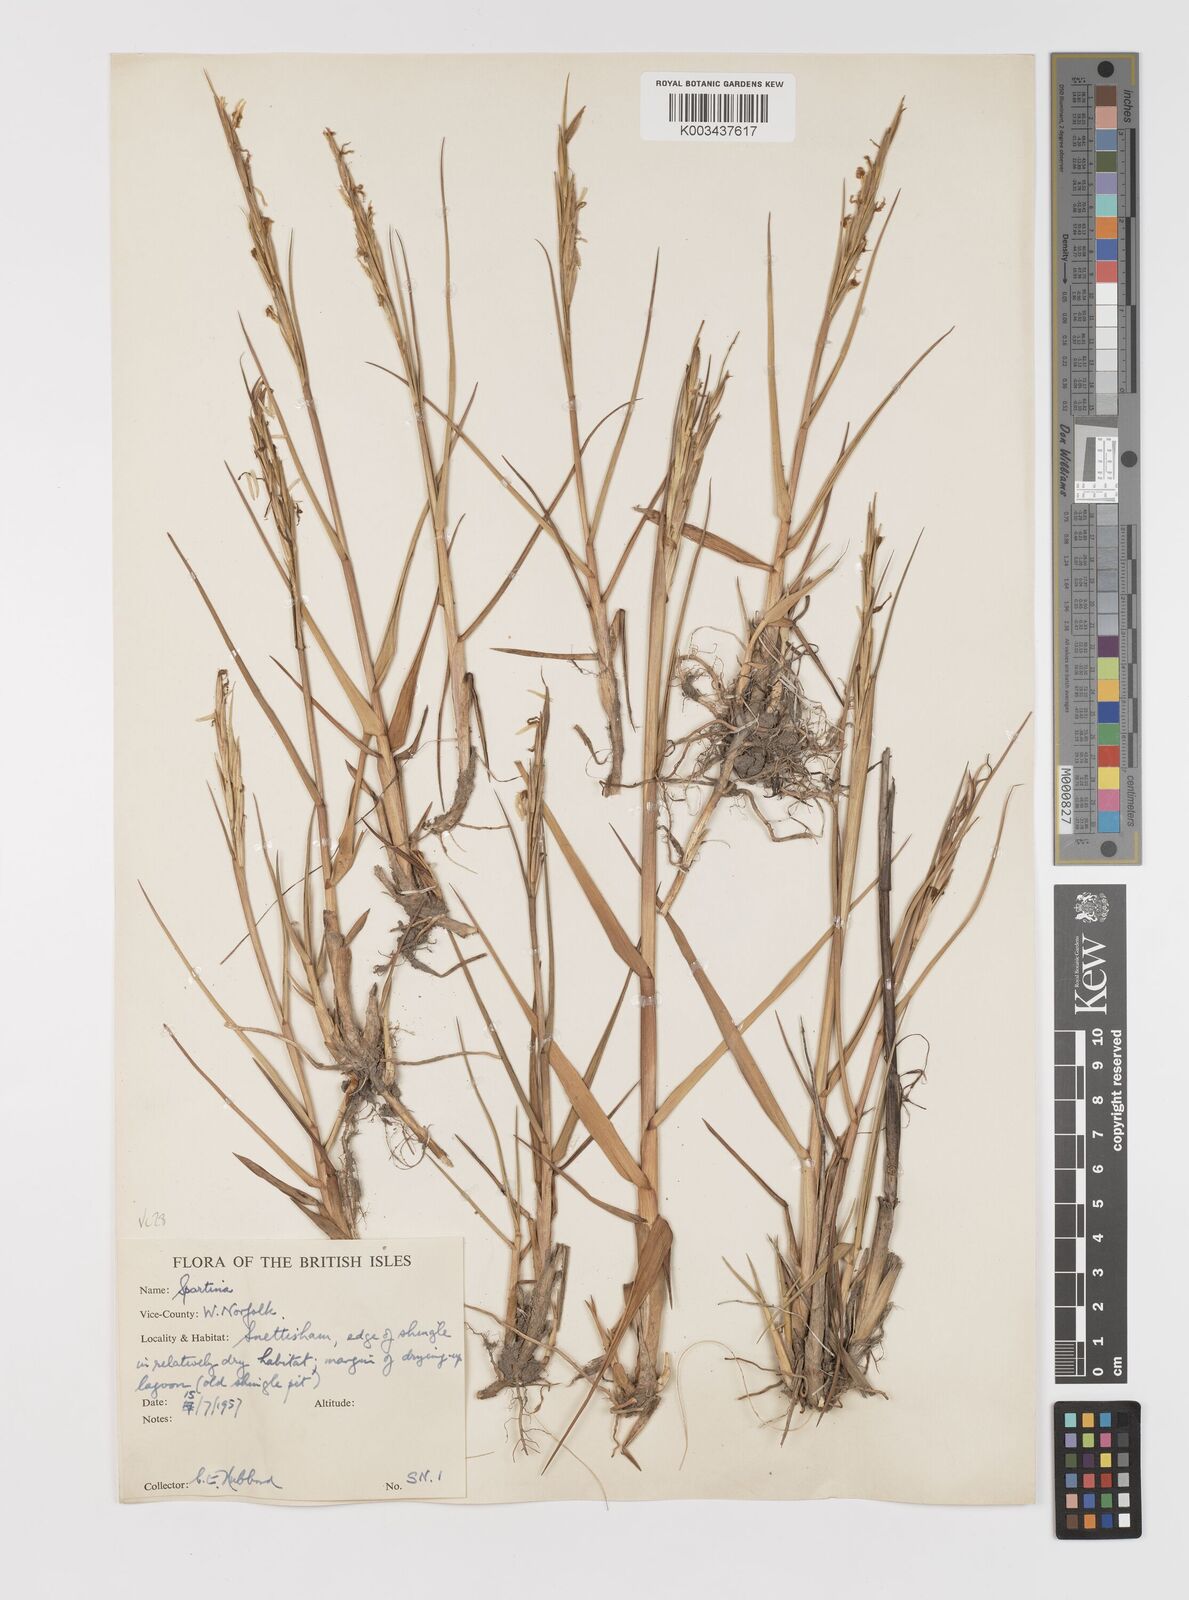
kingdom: Plantae
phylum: Tracheophyta
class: Liliopsida
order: Poales
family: Poaceae
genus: Sporobolus
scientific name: Sporobolus anglicus
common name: English cordgrass
